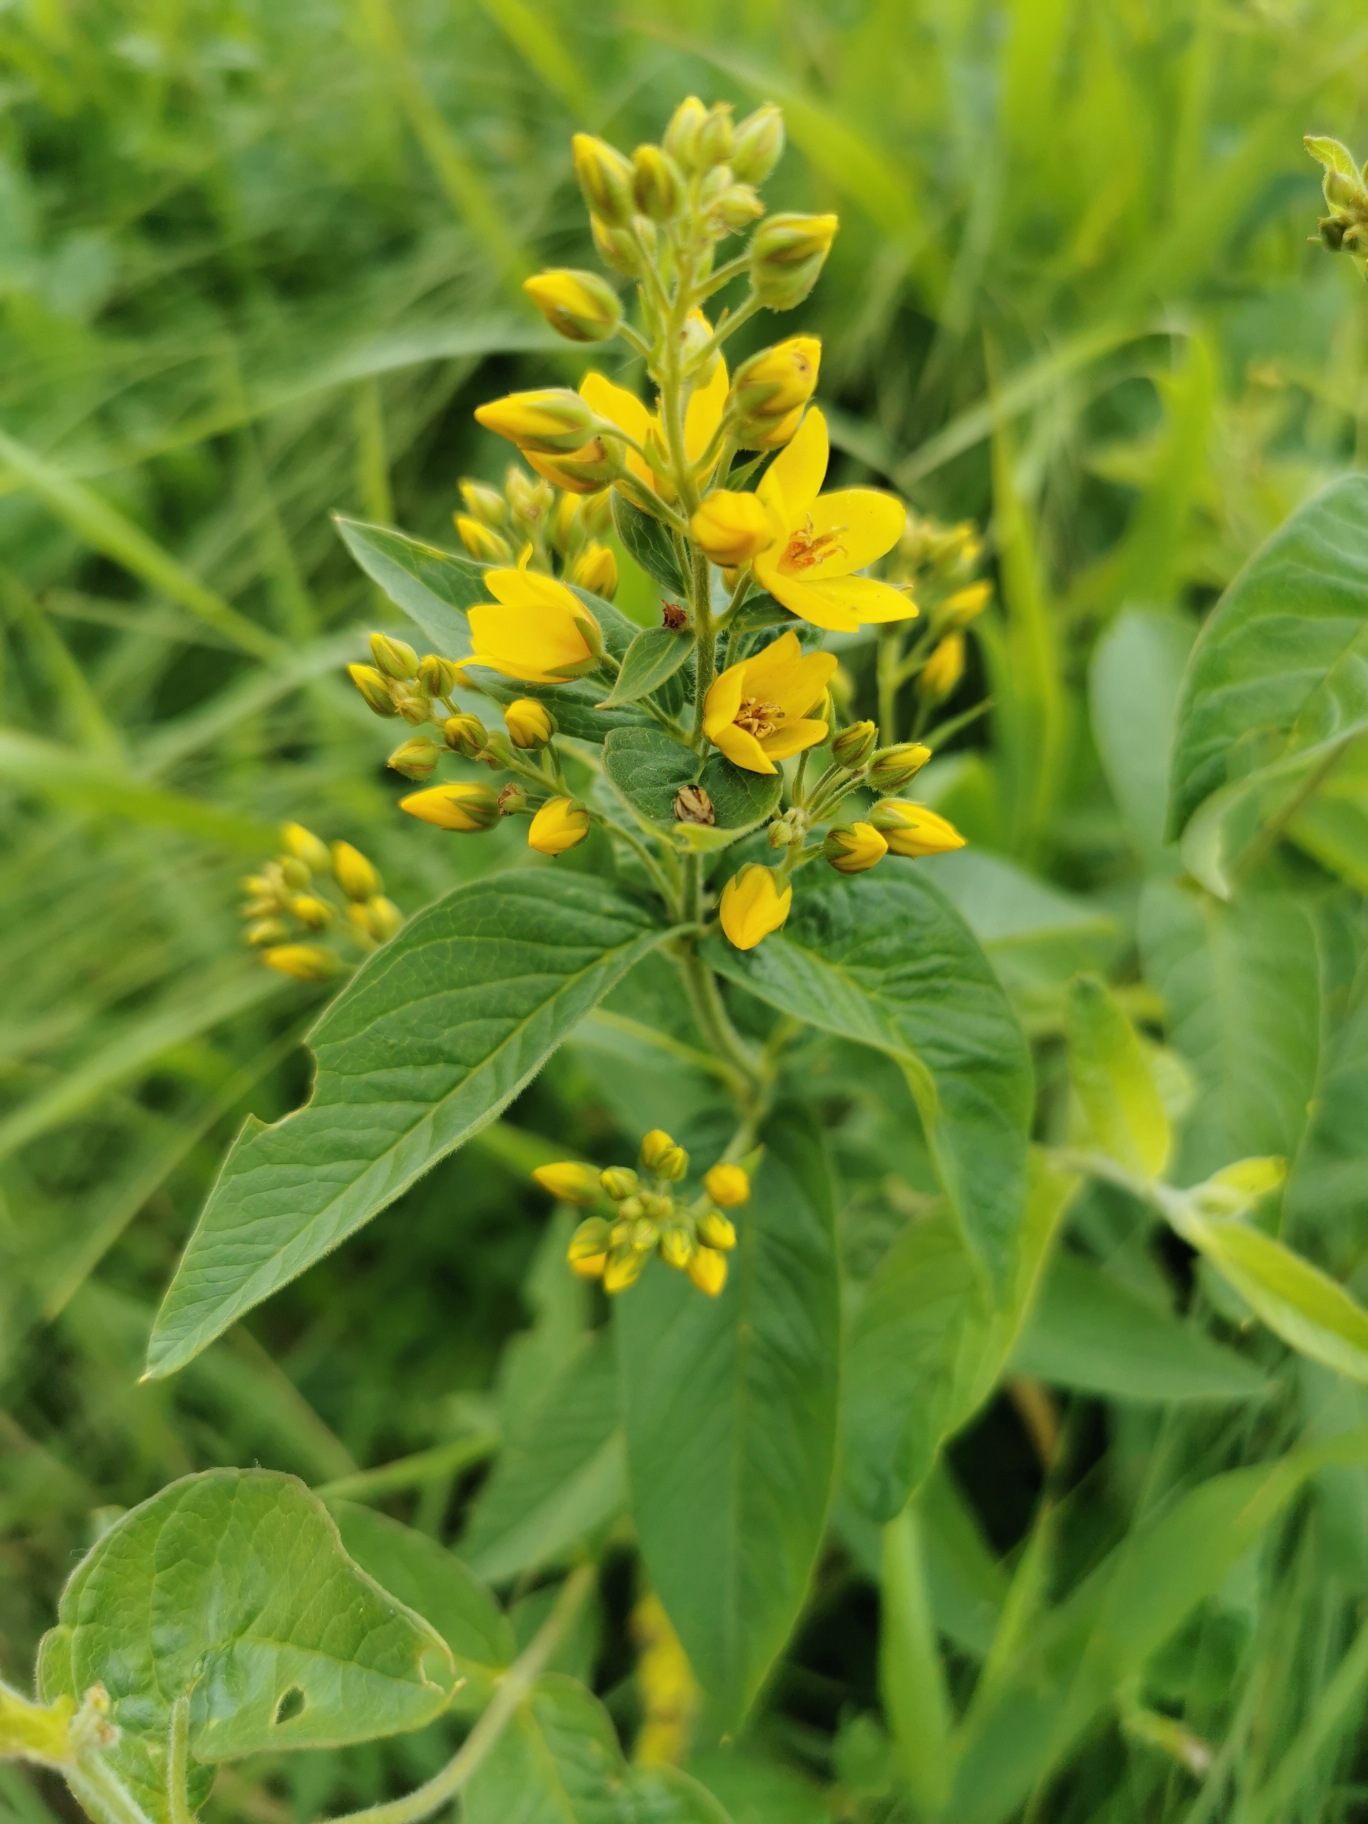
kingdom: Plantae
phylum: Tracheophyta
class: Magnoliopsida
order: Ericales
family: Primulaceae
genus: Lysimachia
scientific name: Lysimachia vulgaris
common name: Almindelig fredløs
